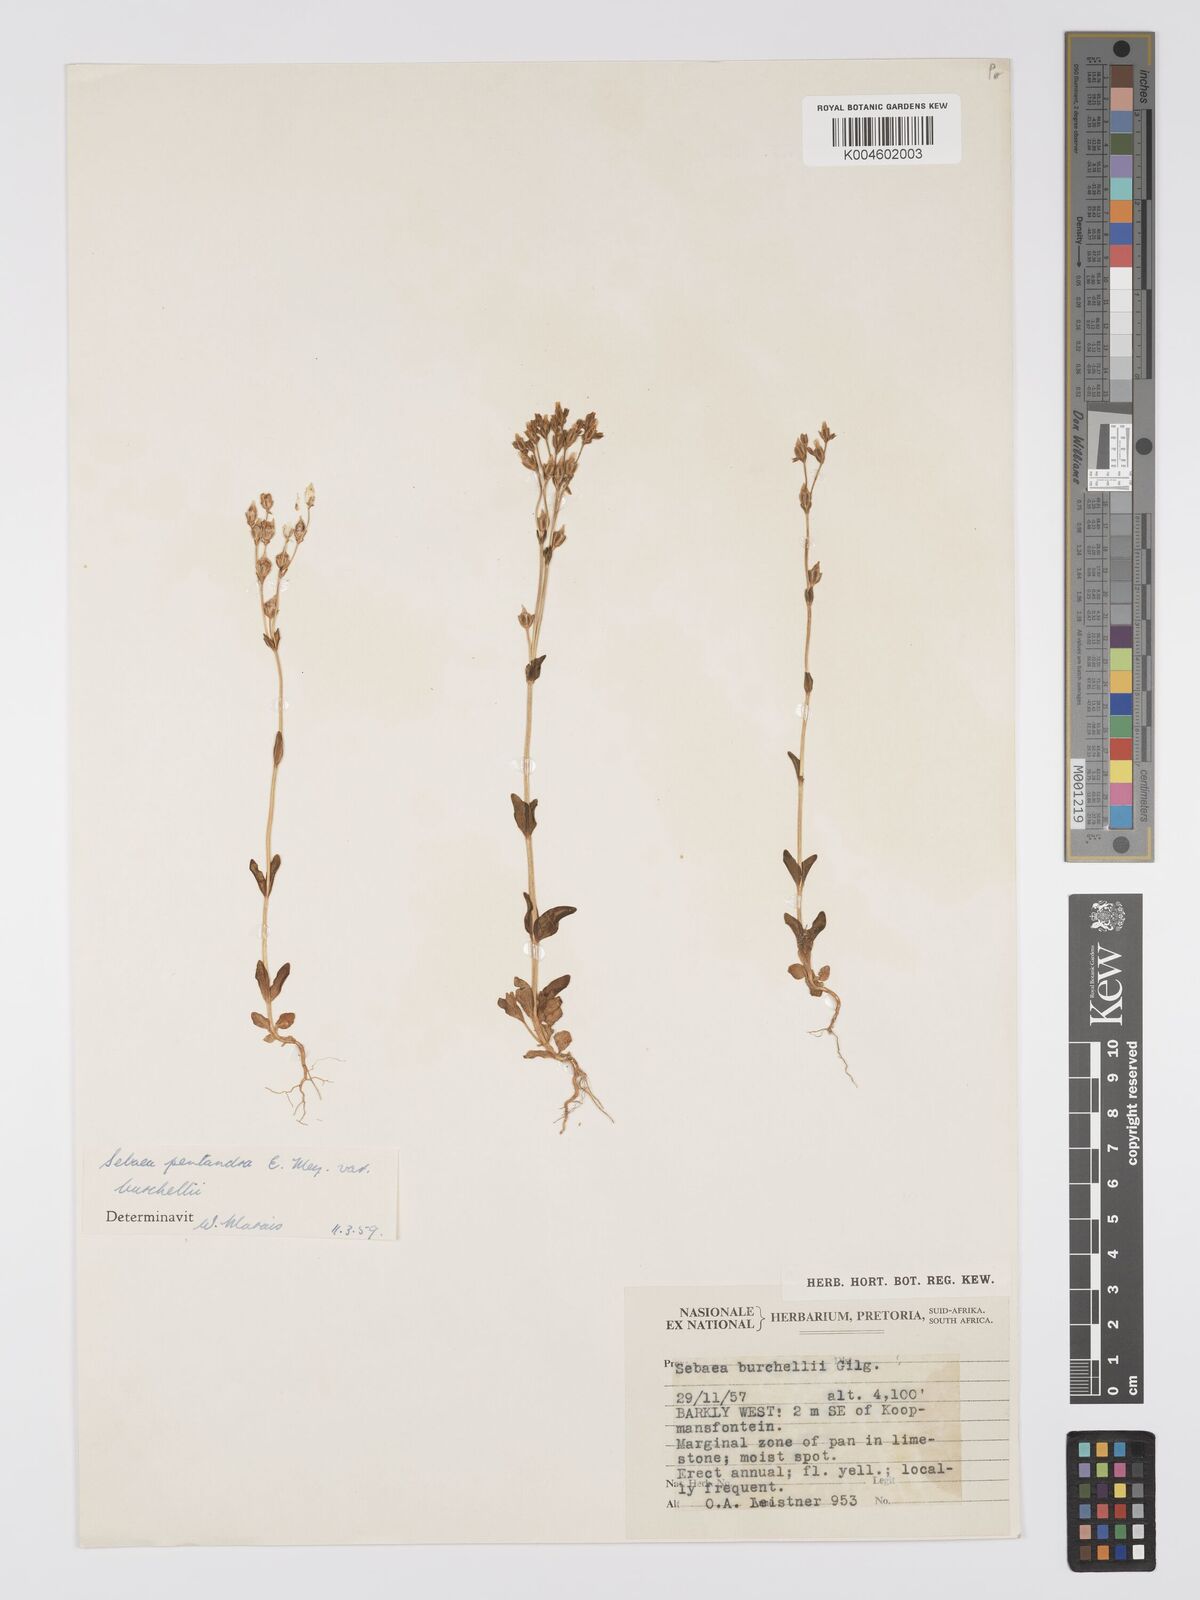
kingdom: Plantae
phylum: Tracheophyta
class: Magnoliopsida
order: Gentianales
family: Gentianaceae
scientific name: Gentianaceae
